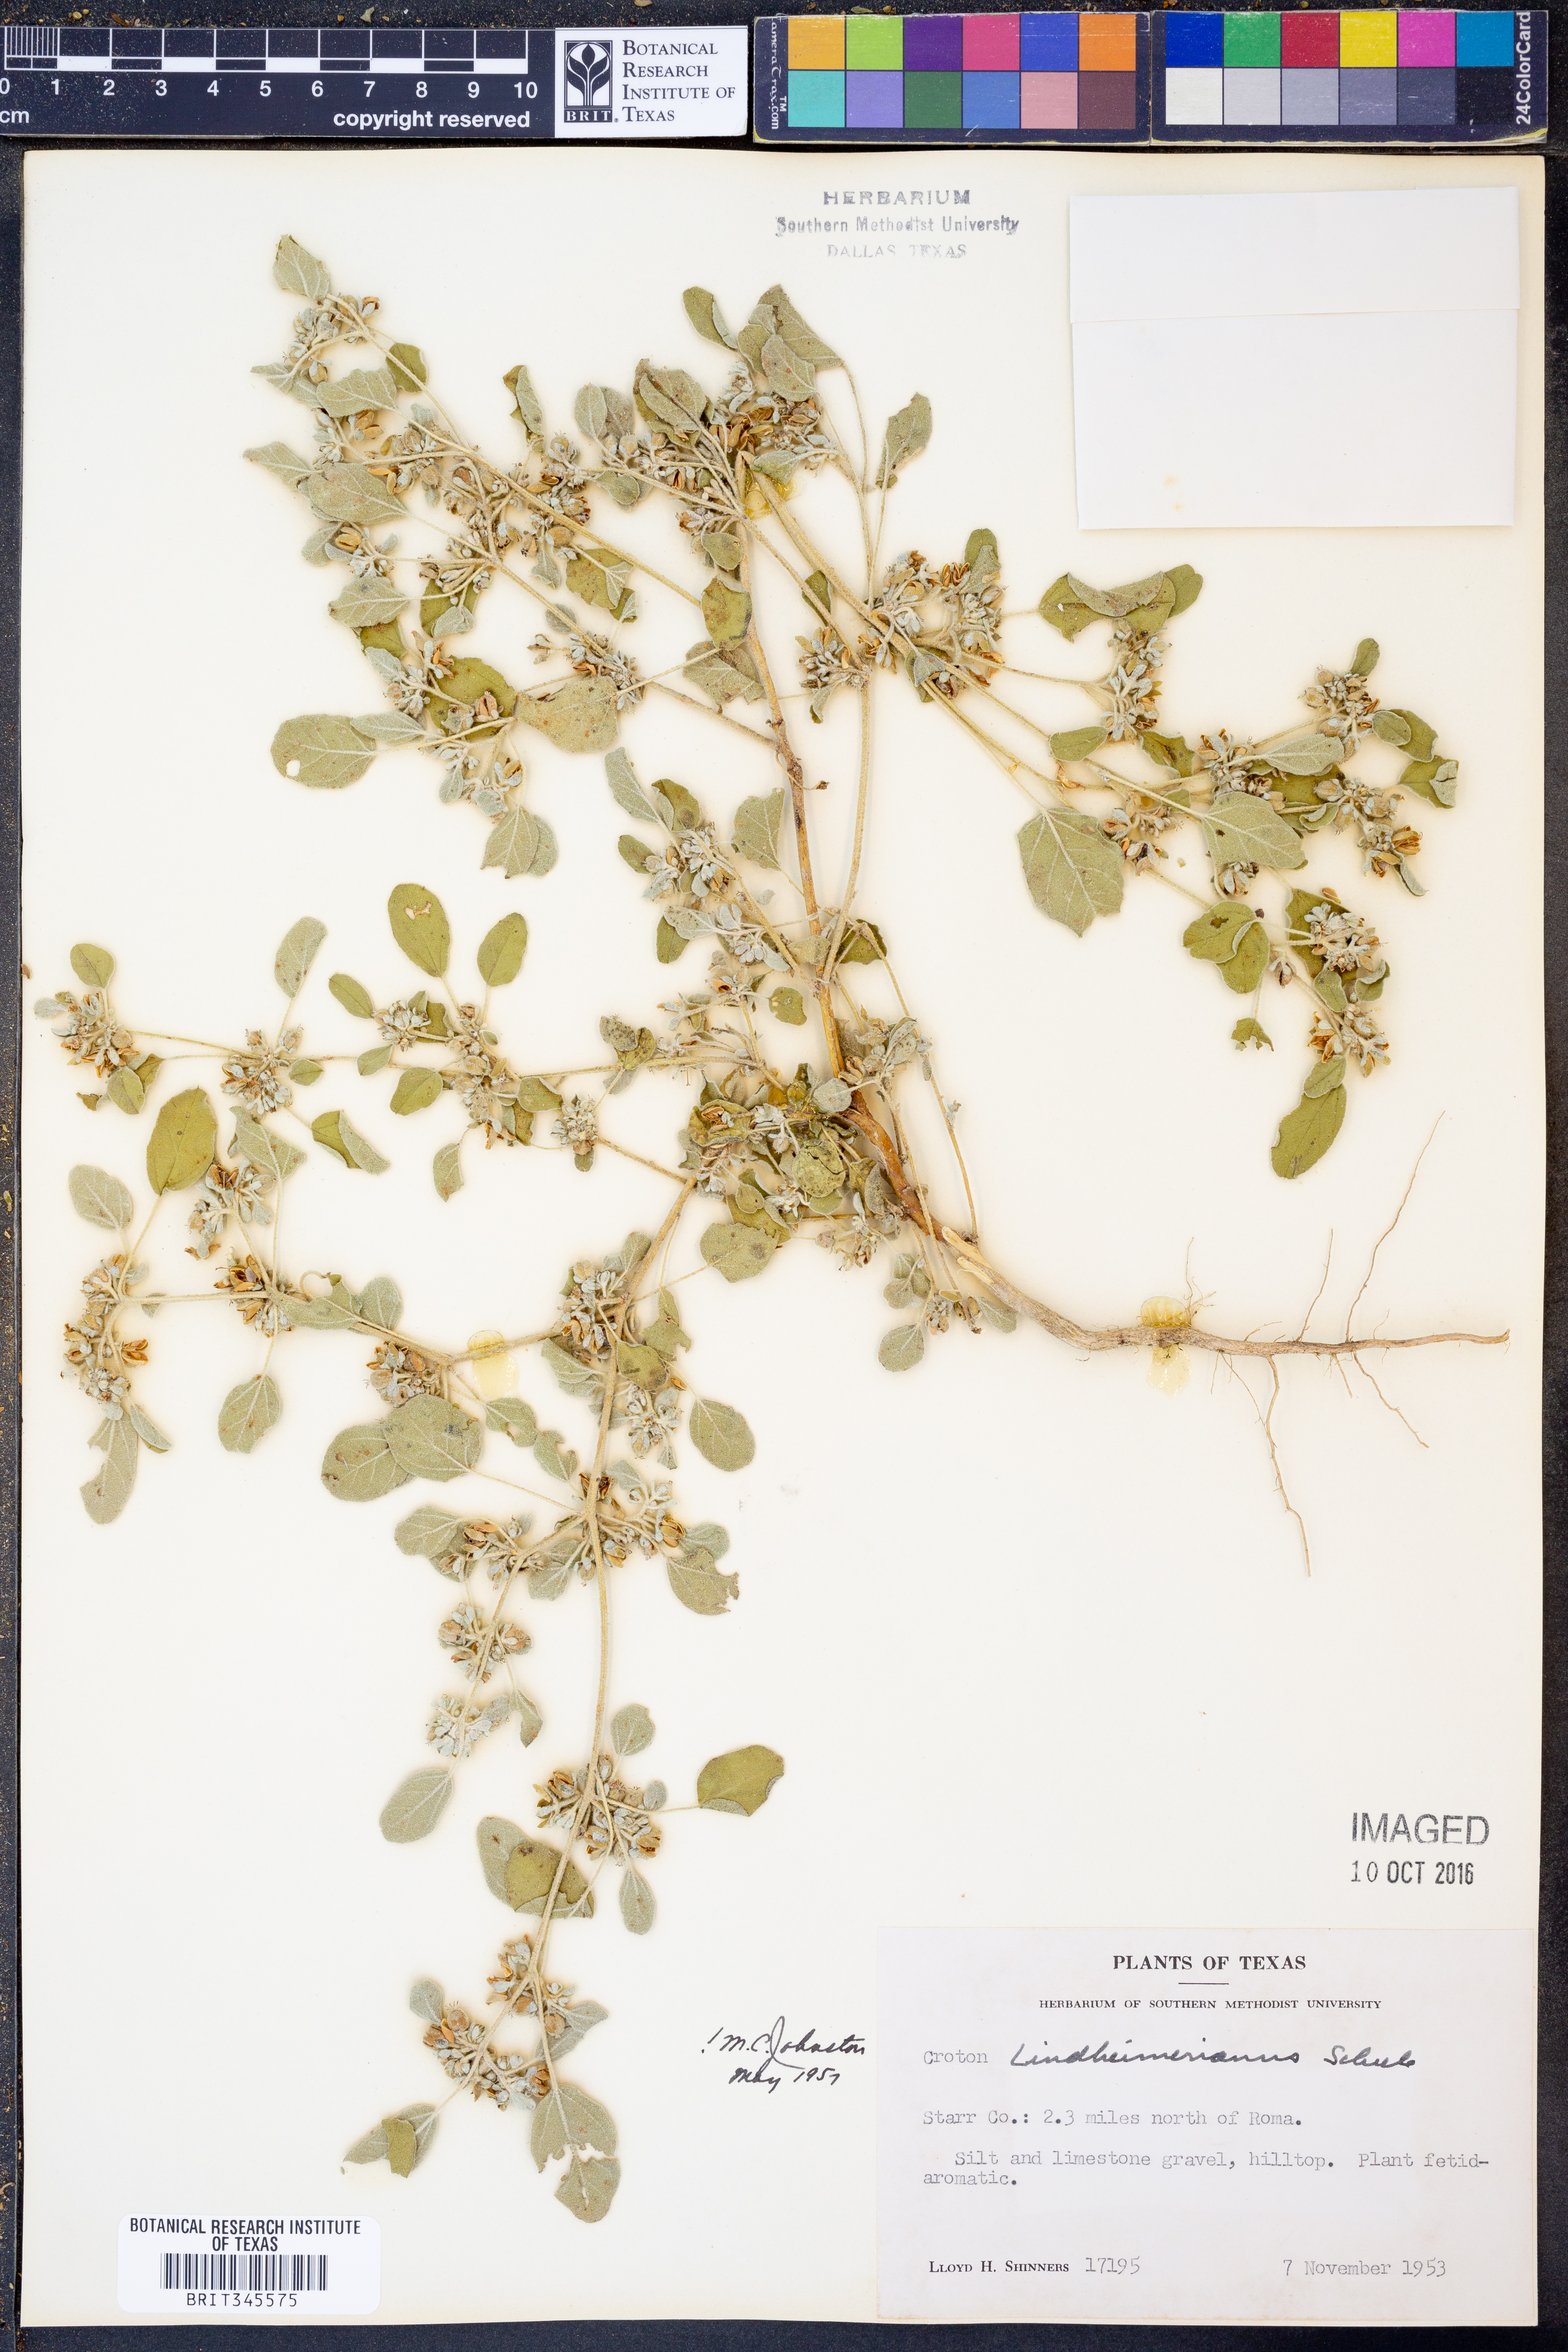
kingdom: Plantae
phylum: Tracheophyta
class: Magnoliopsida
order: Malpighiales
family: Euphorbiaceae
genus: Croton
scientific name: Croton lindheimerianus
